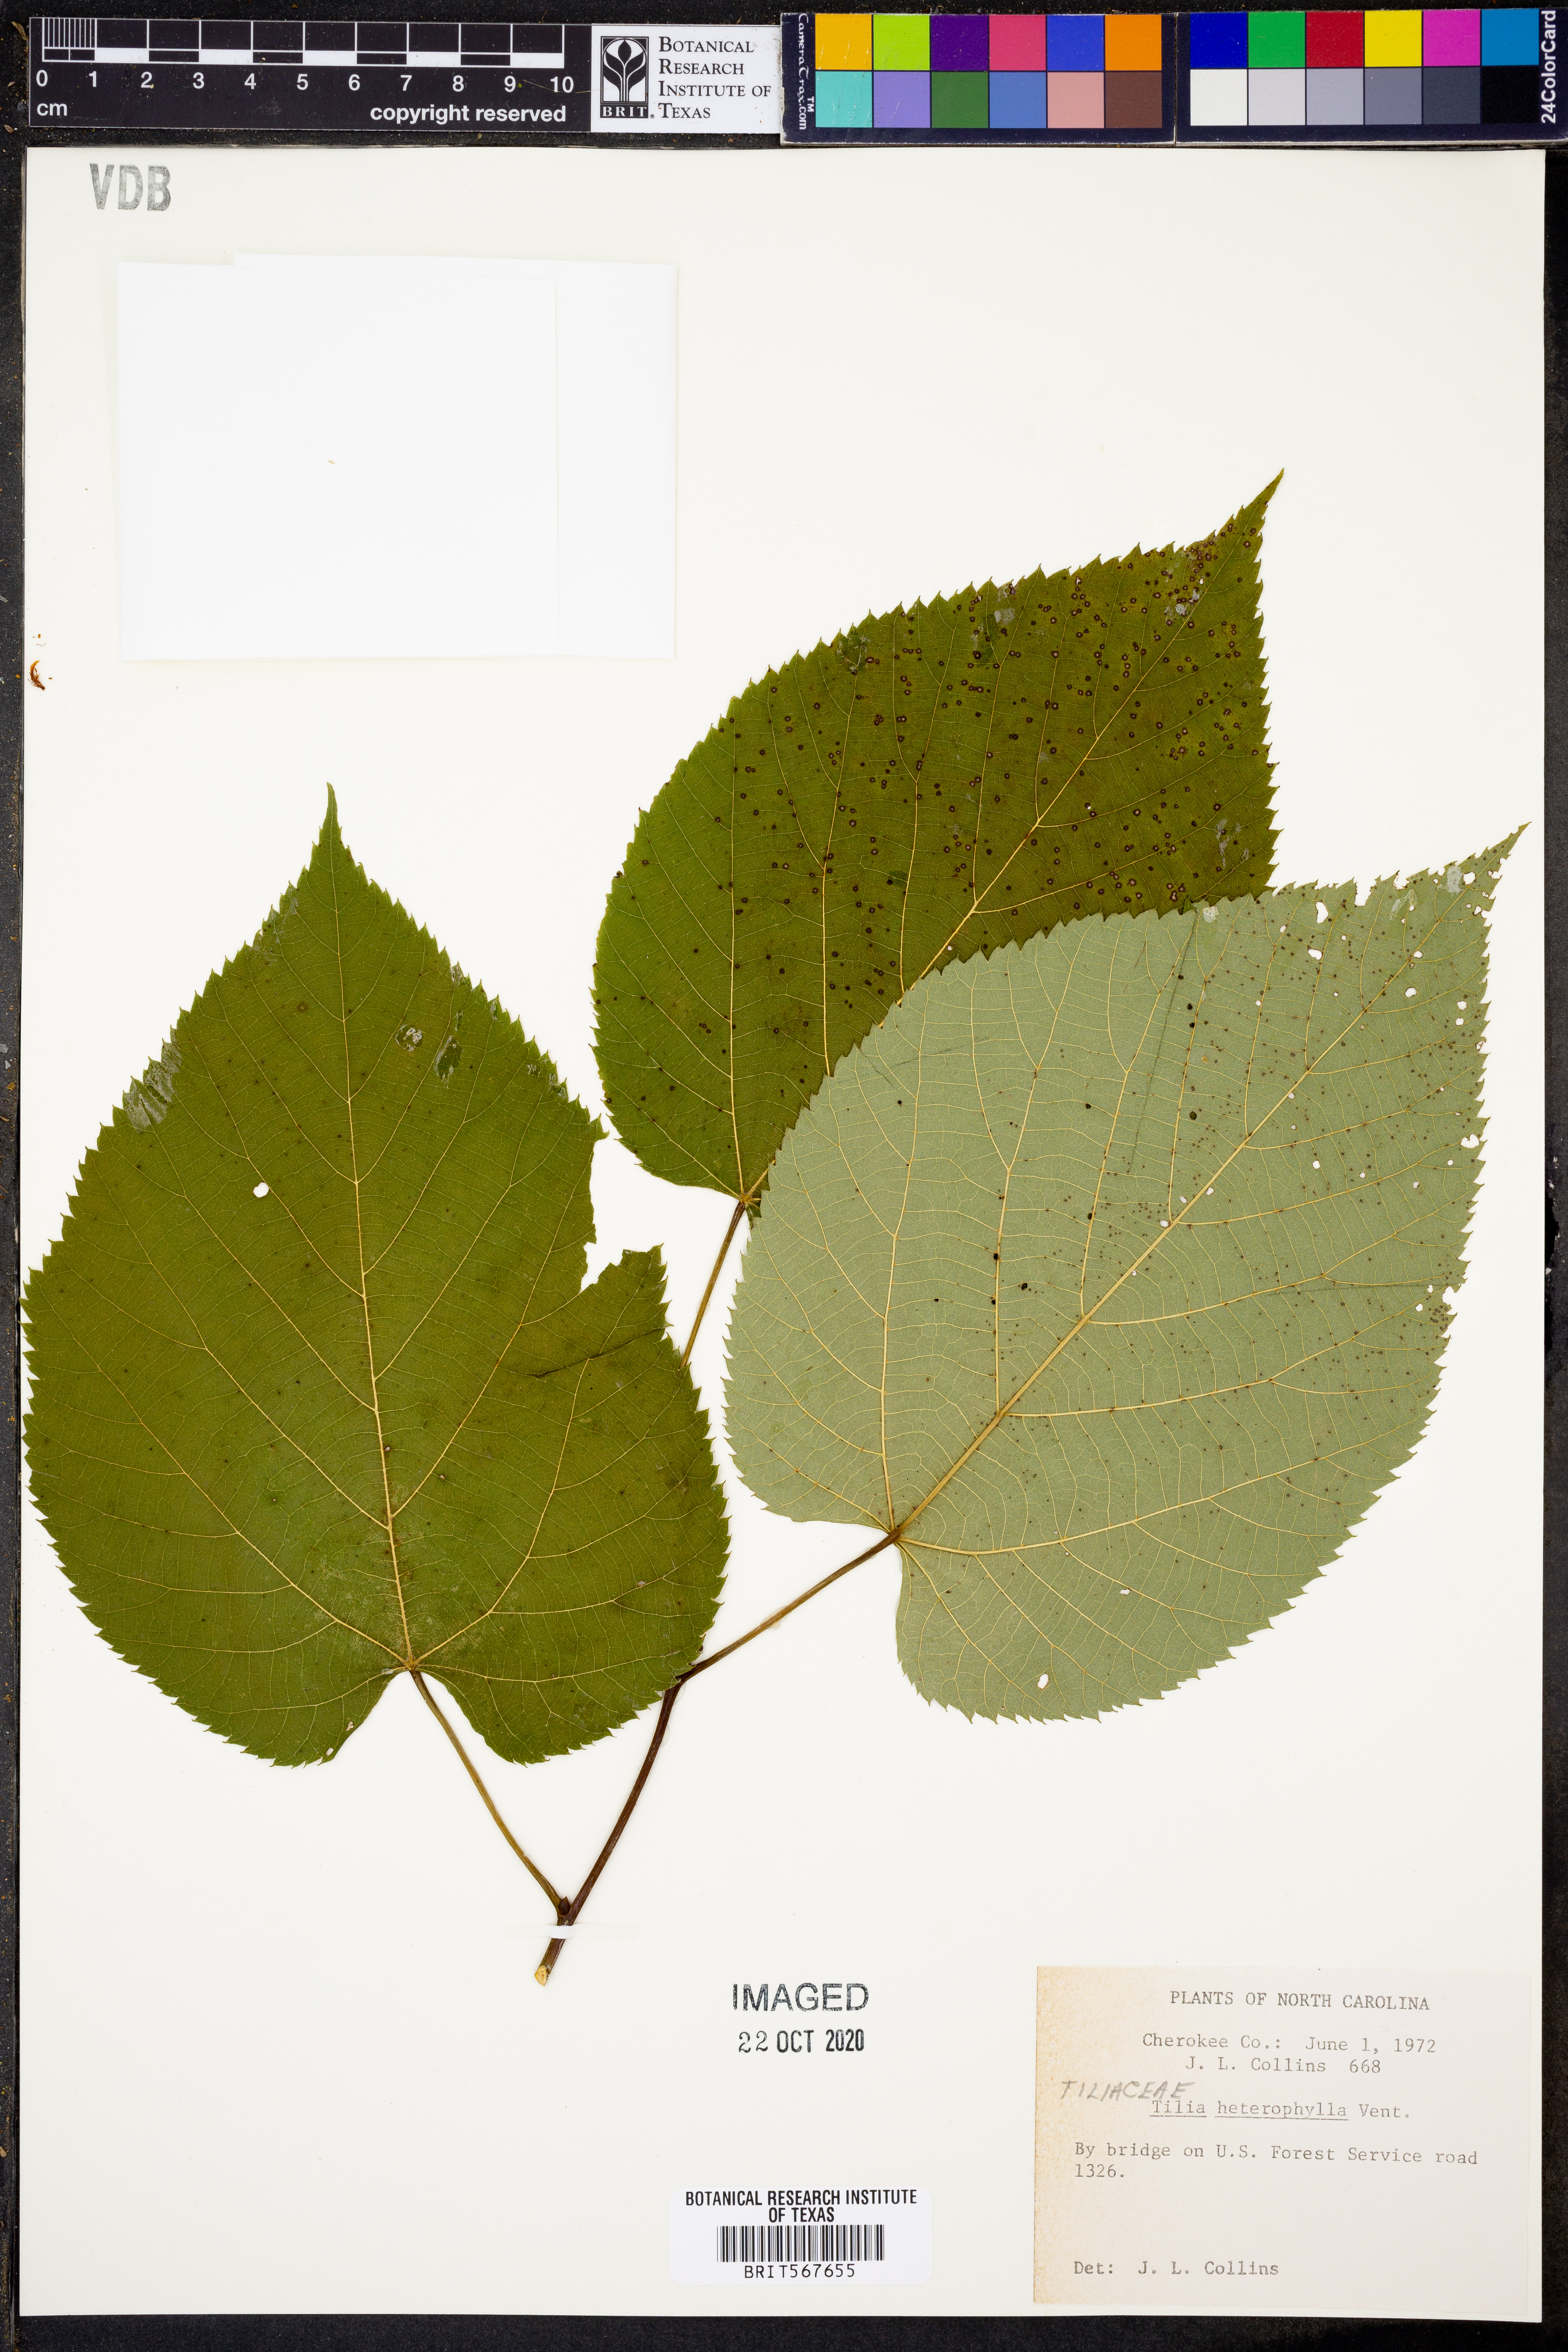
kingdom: Plantae
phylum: Tracheophyta
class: Magnoliopsida
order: Malvales
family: Malvaceae
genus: Tilia
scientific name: Tilia americana
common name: Basswood
